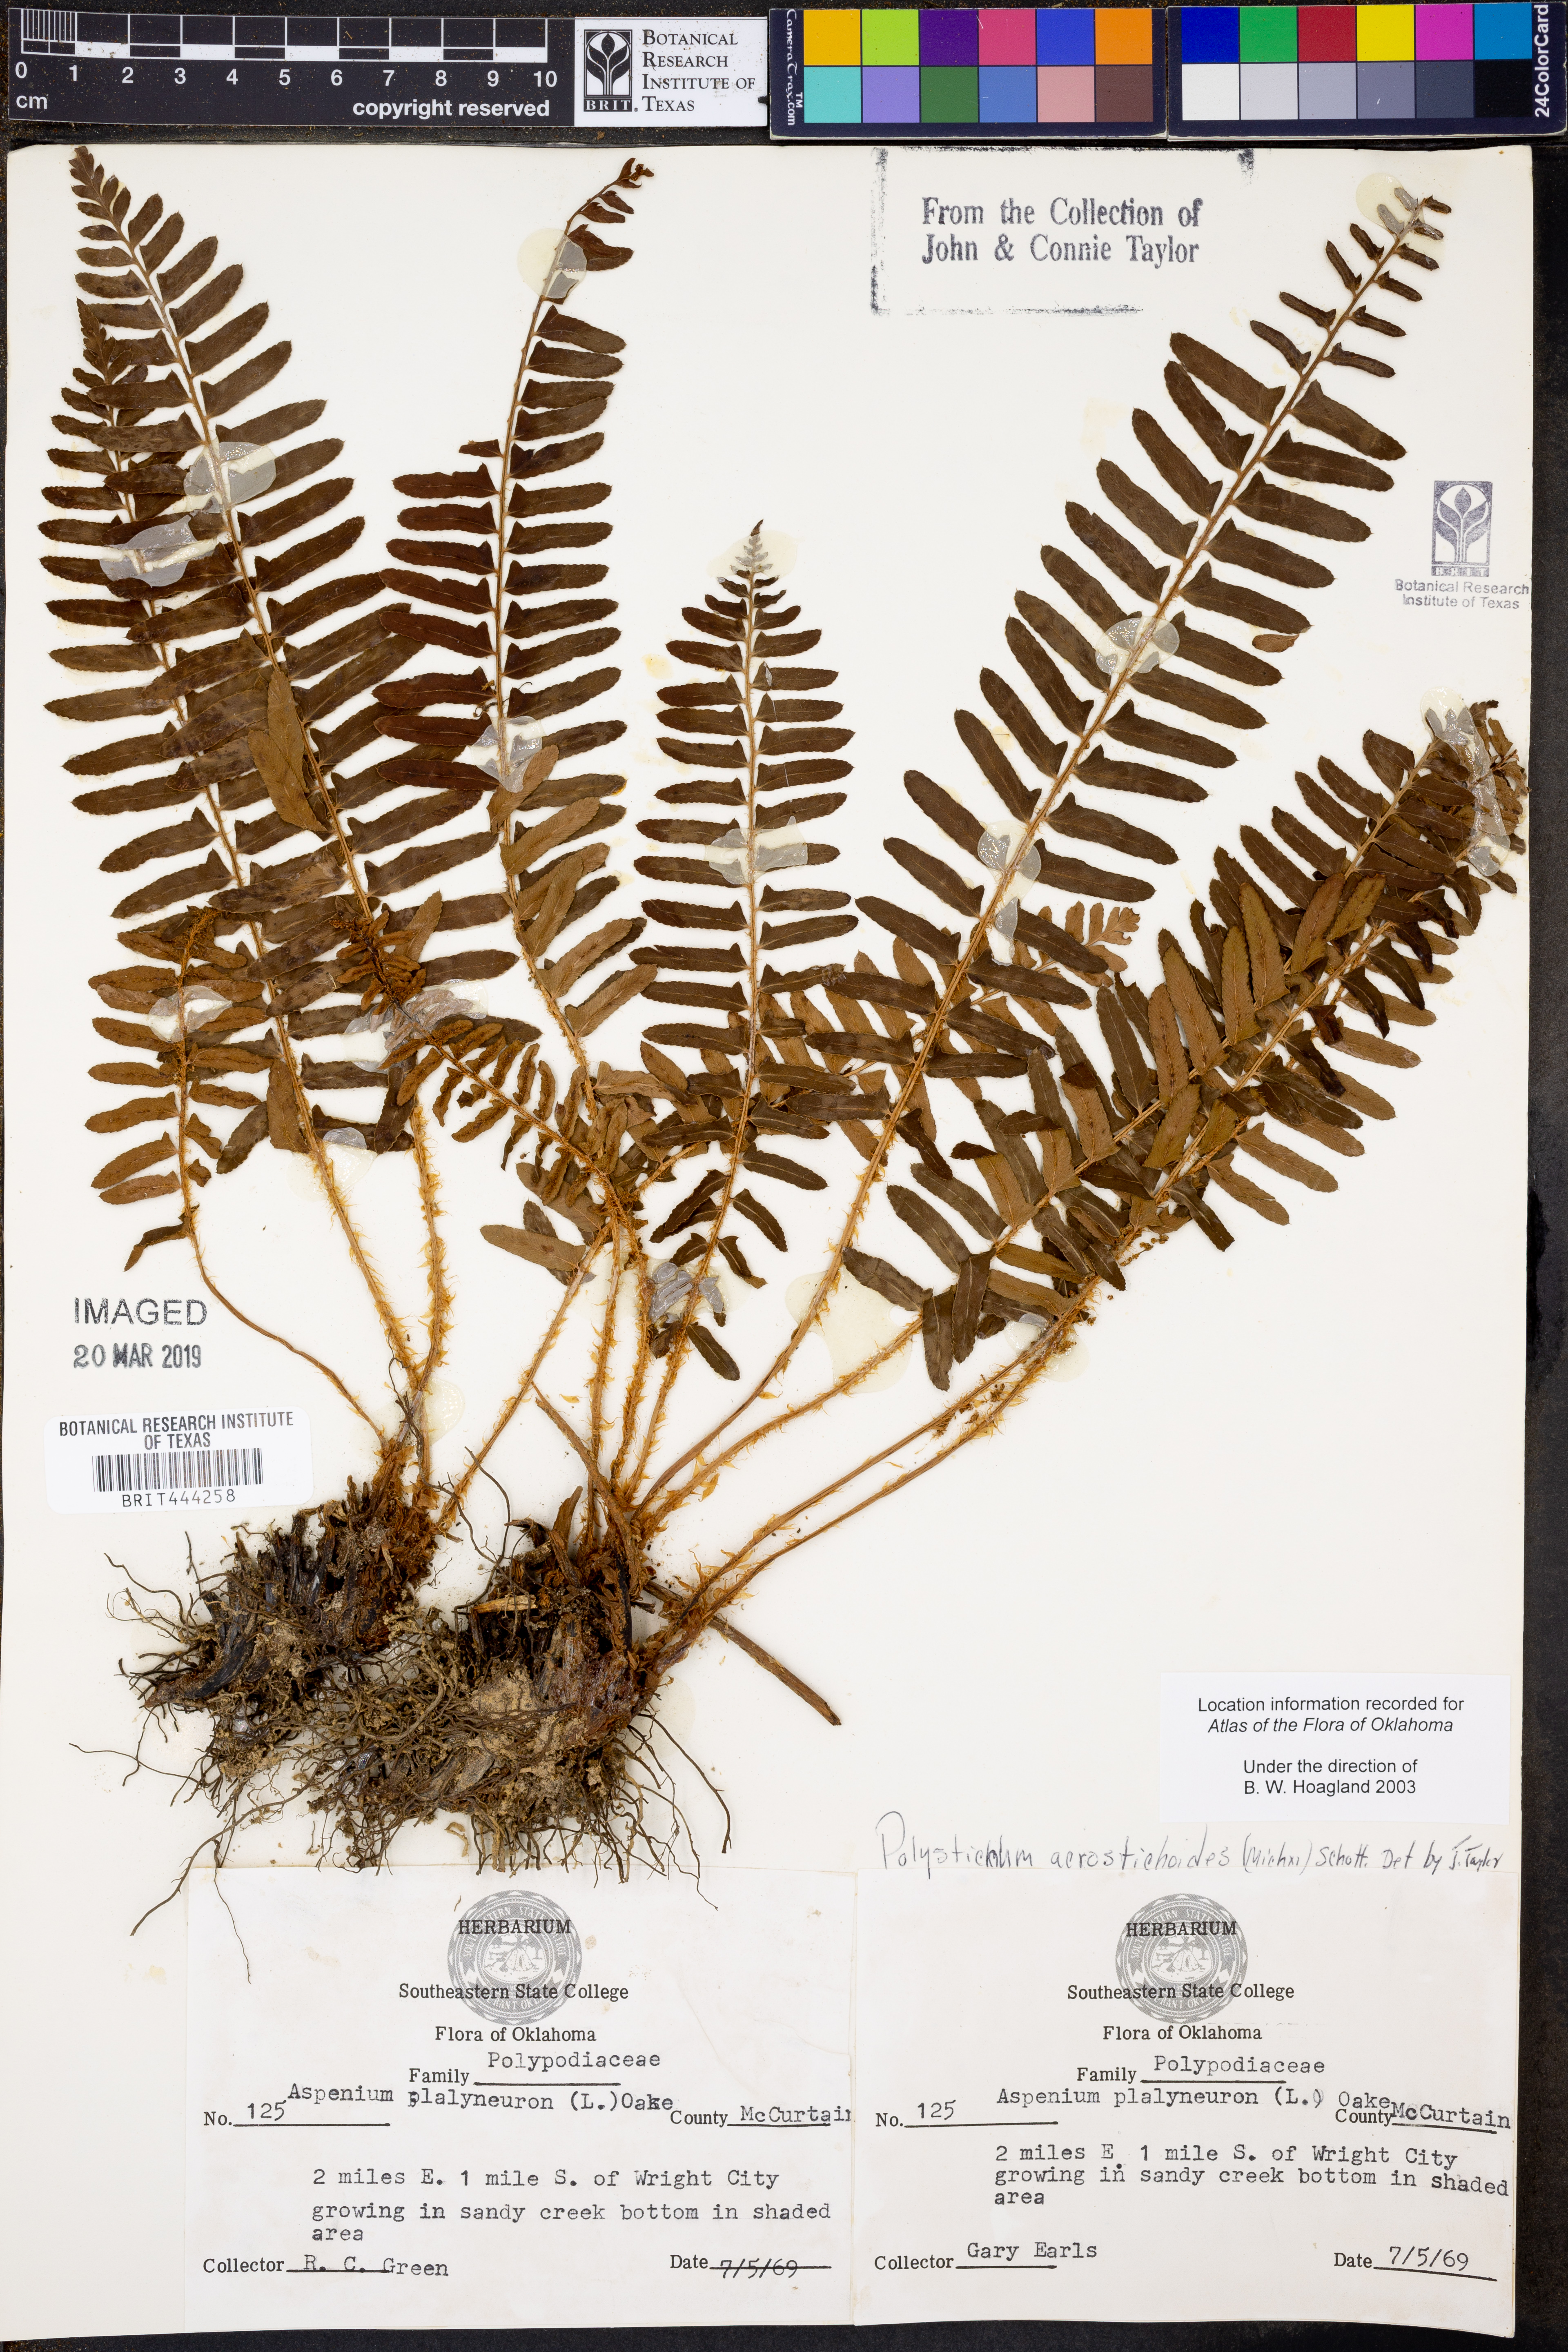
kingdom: Plantae
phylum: Tracheophyta
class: Polypodiopsida
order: Polypodiales
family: Dryopteridaceae
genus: Polystichum
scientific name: Polystichum acrostichoides
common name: Christmas fern
